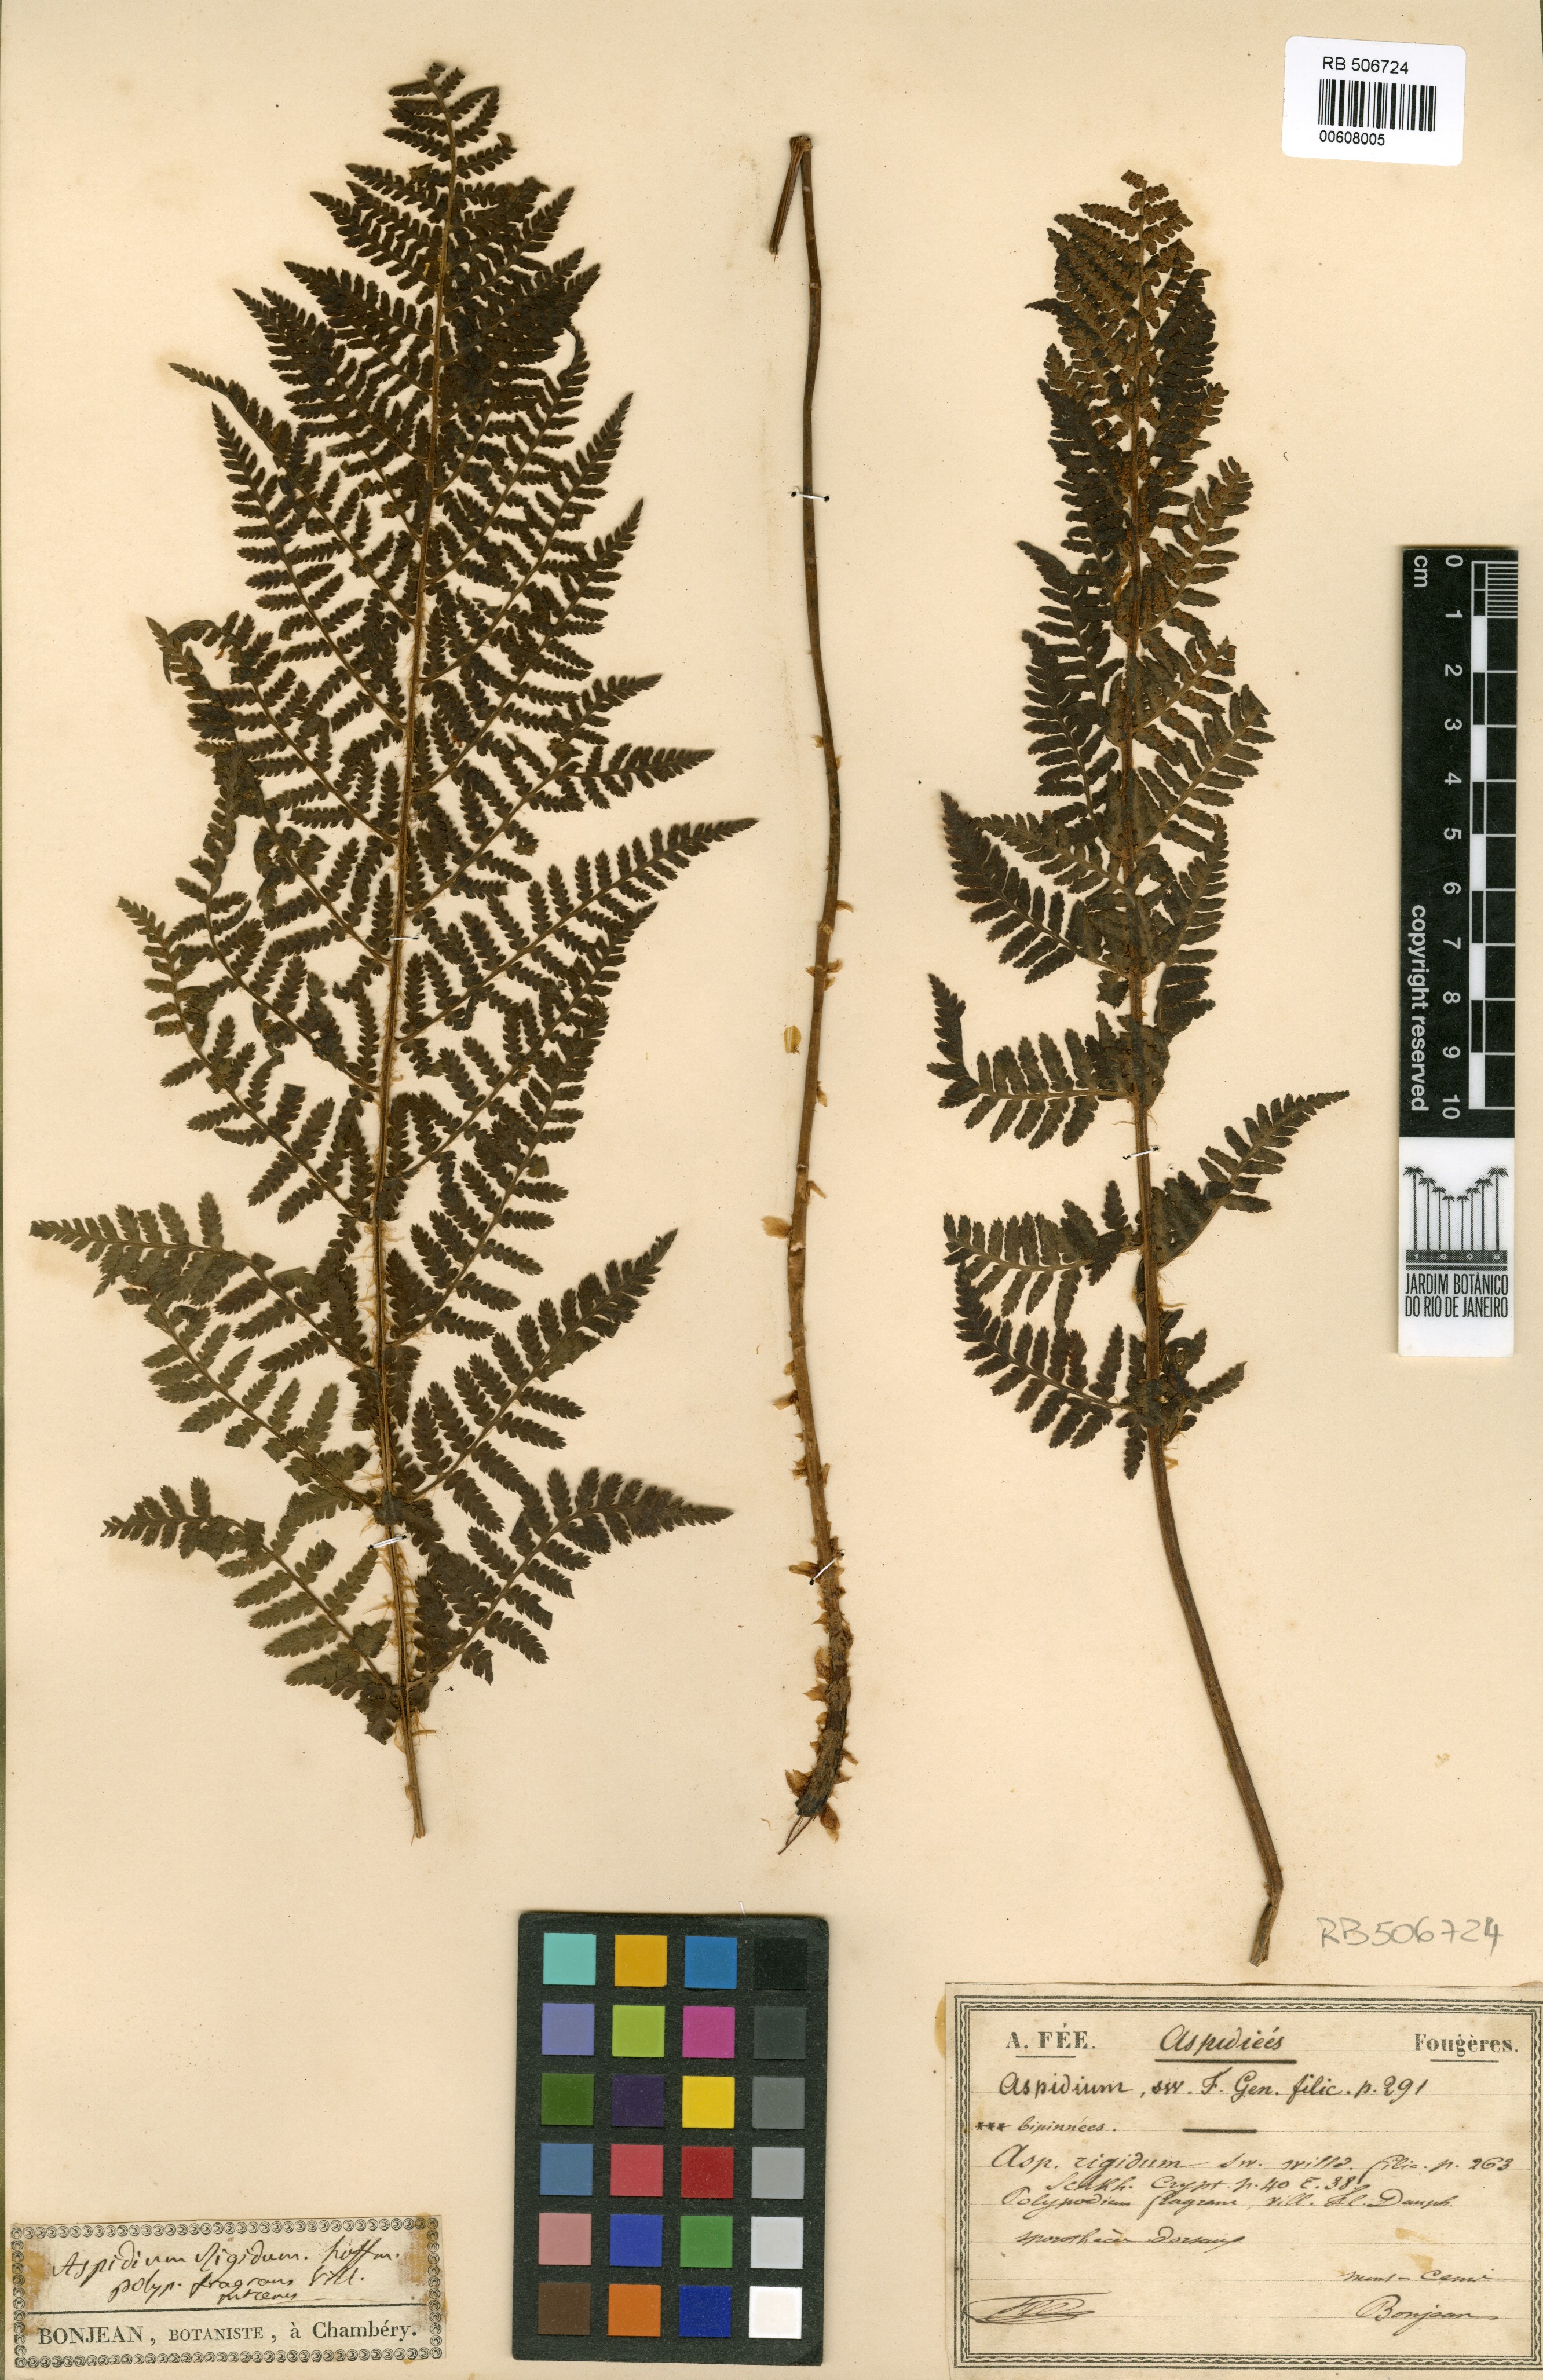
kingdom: Plantae
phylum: Tracheophyta
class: Polypodiopsida
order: Polypodiales
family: Dryopteridaceae
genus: Dryopteris
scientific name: Dryopteris villarii
